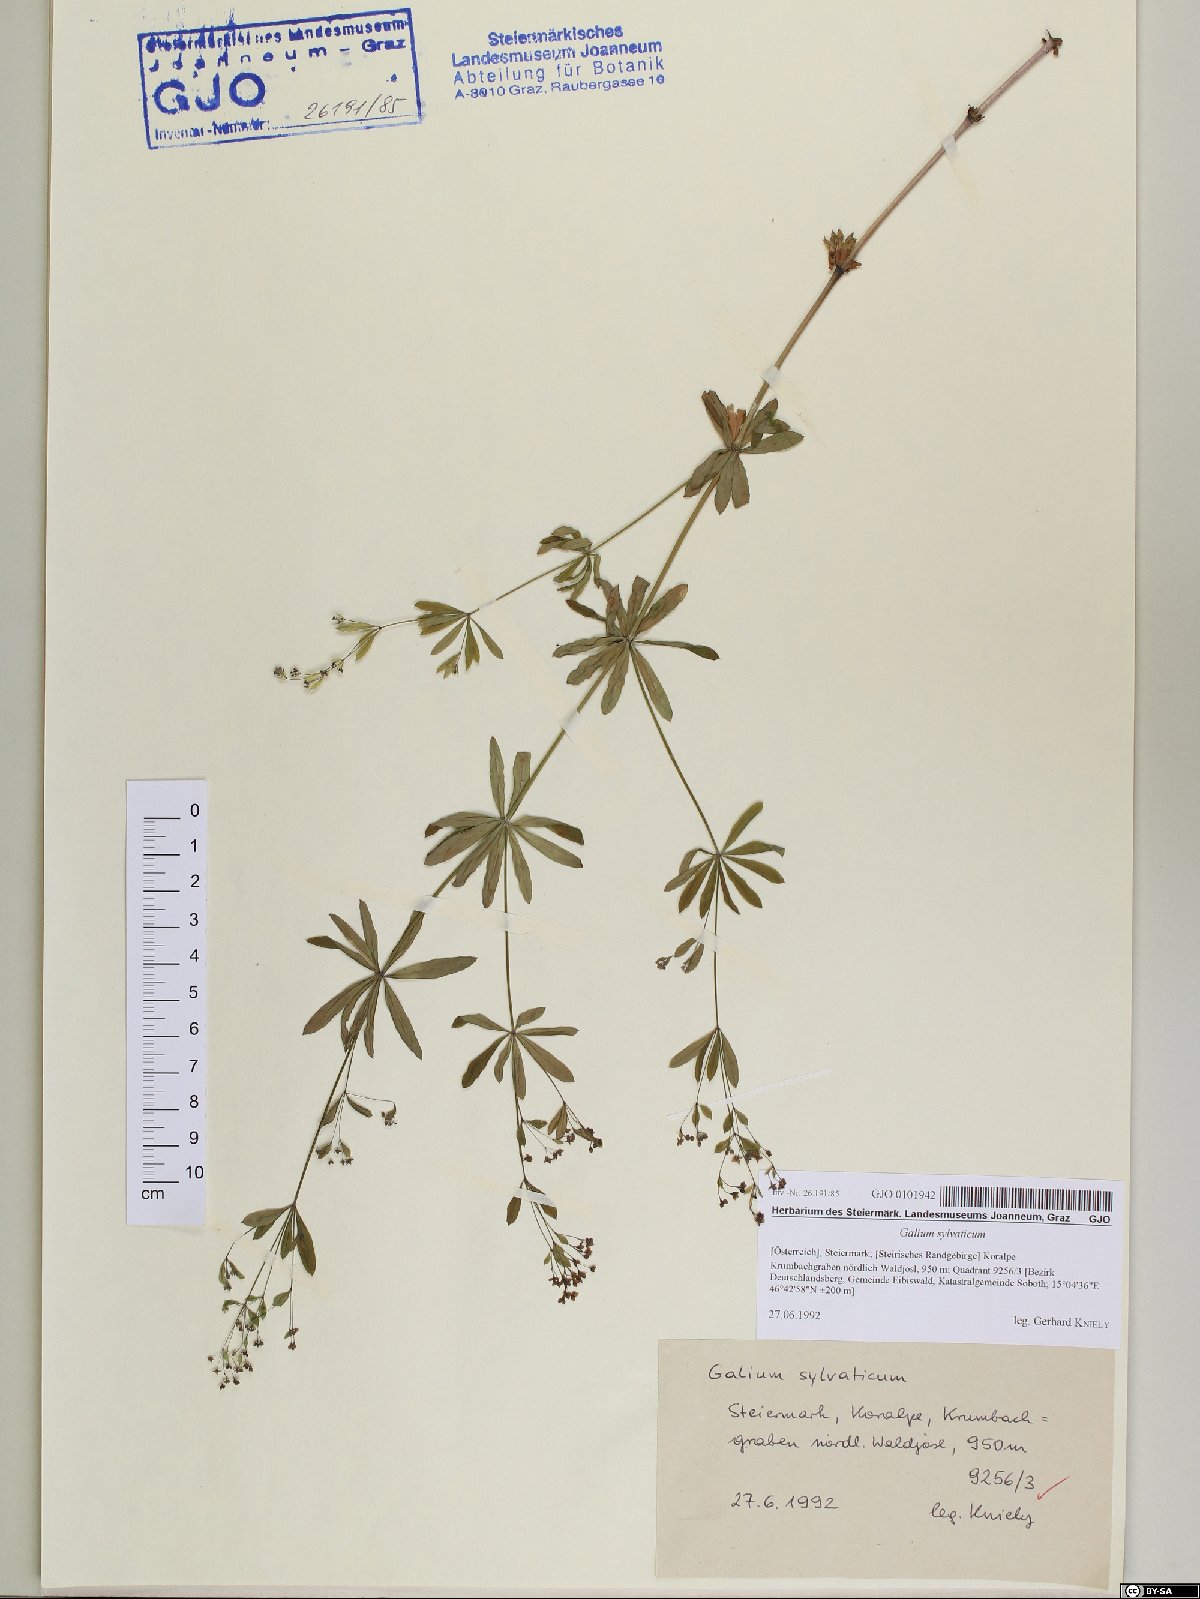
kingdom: Plantae
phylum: Tracheophyta
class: Magnoliopsida
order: Gentianales
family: Rubiaceae
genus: Galium
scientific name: Galium sylvaticum
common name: Wood bedstraw
